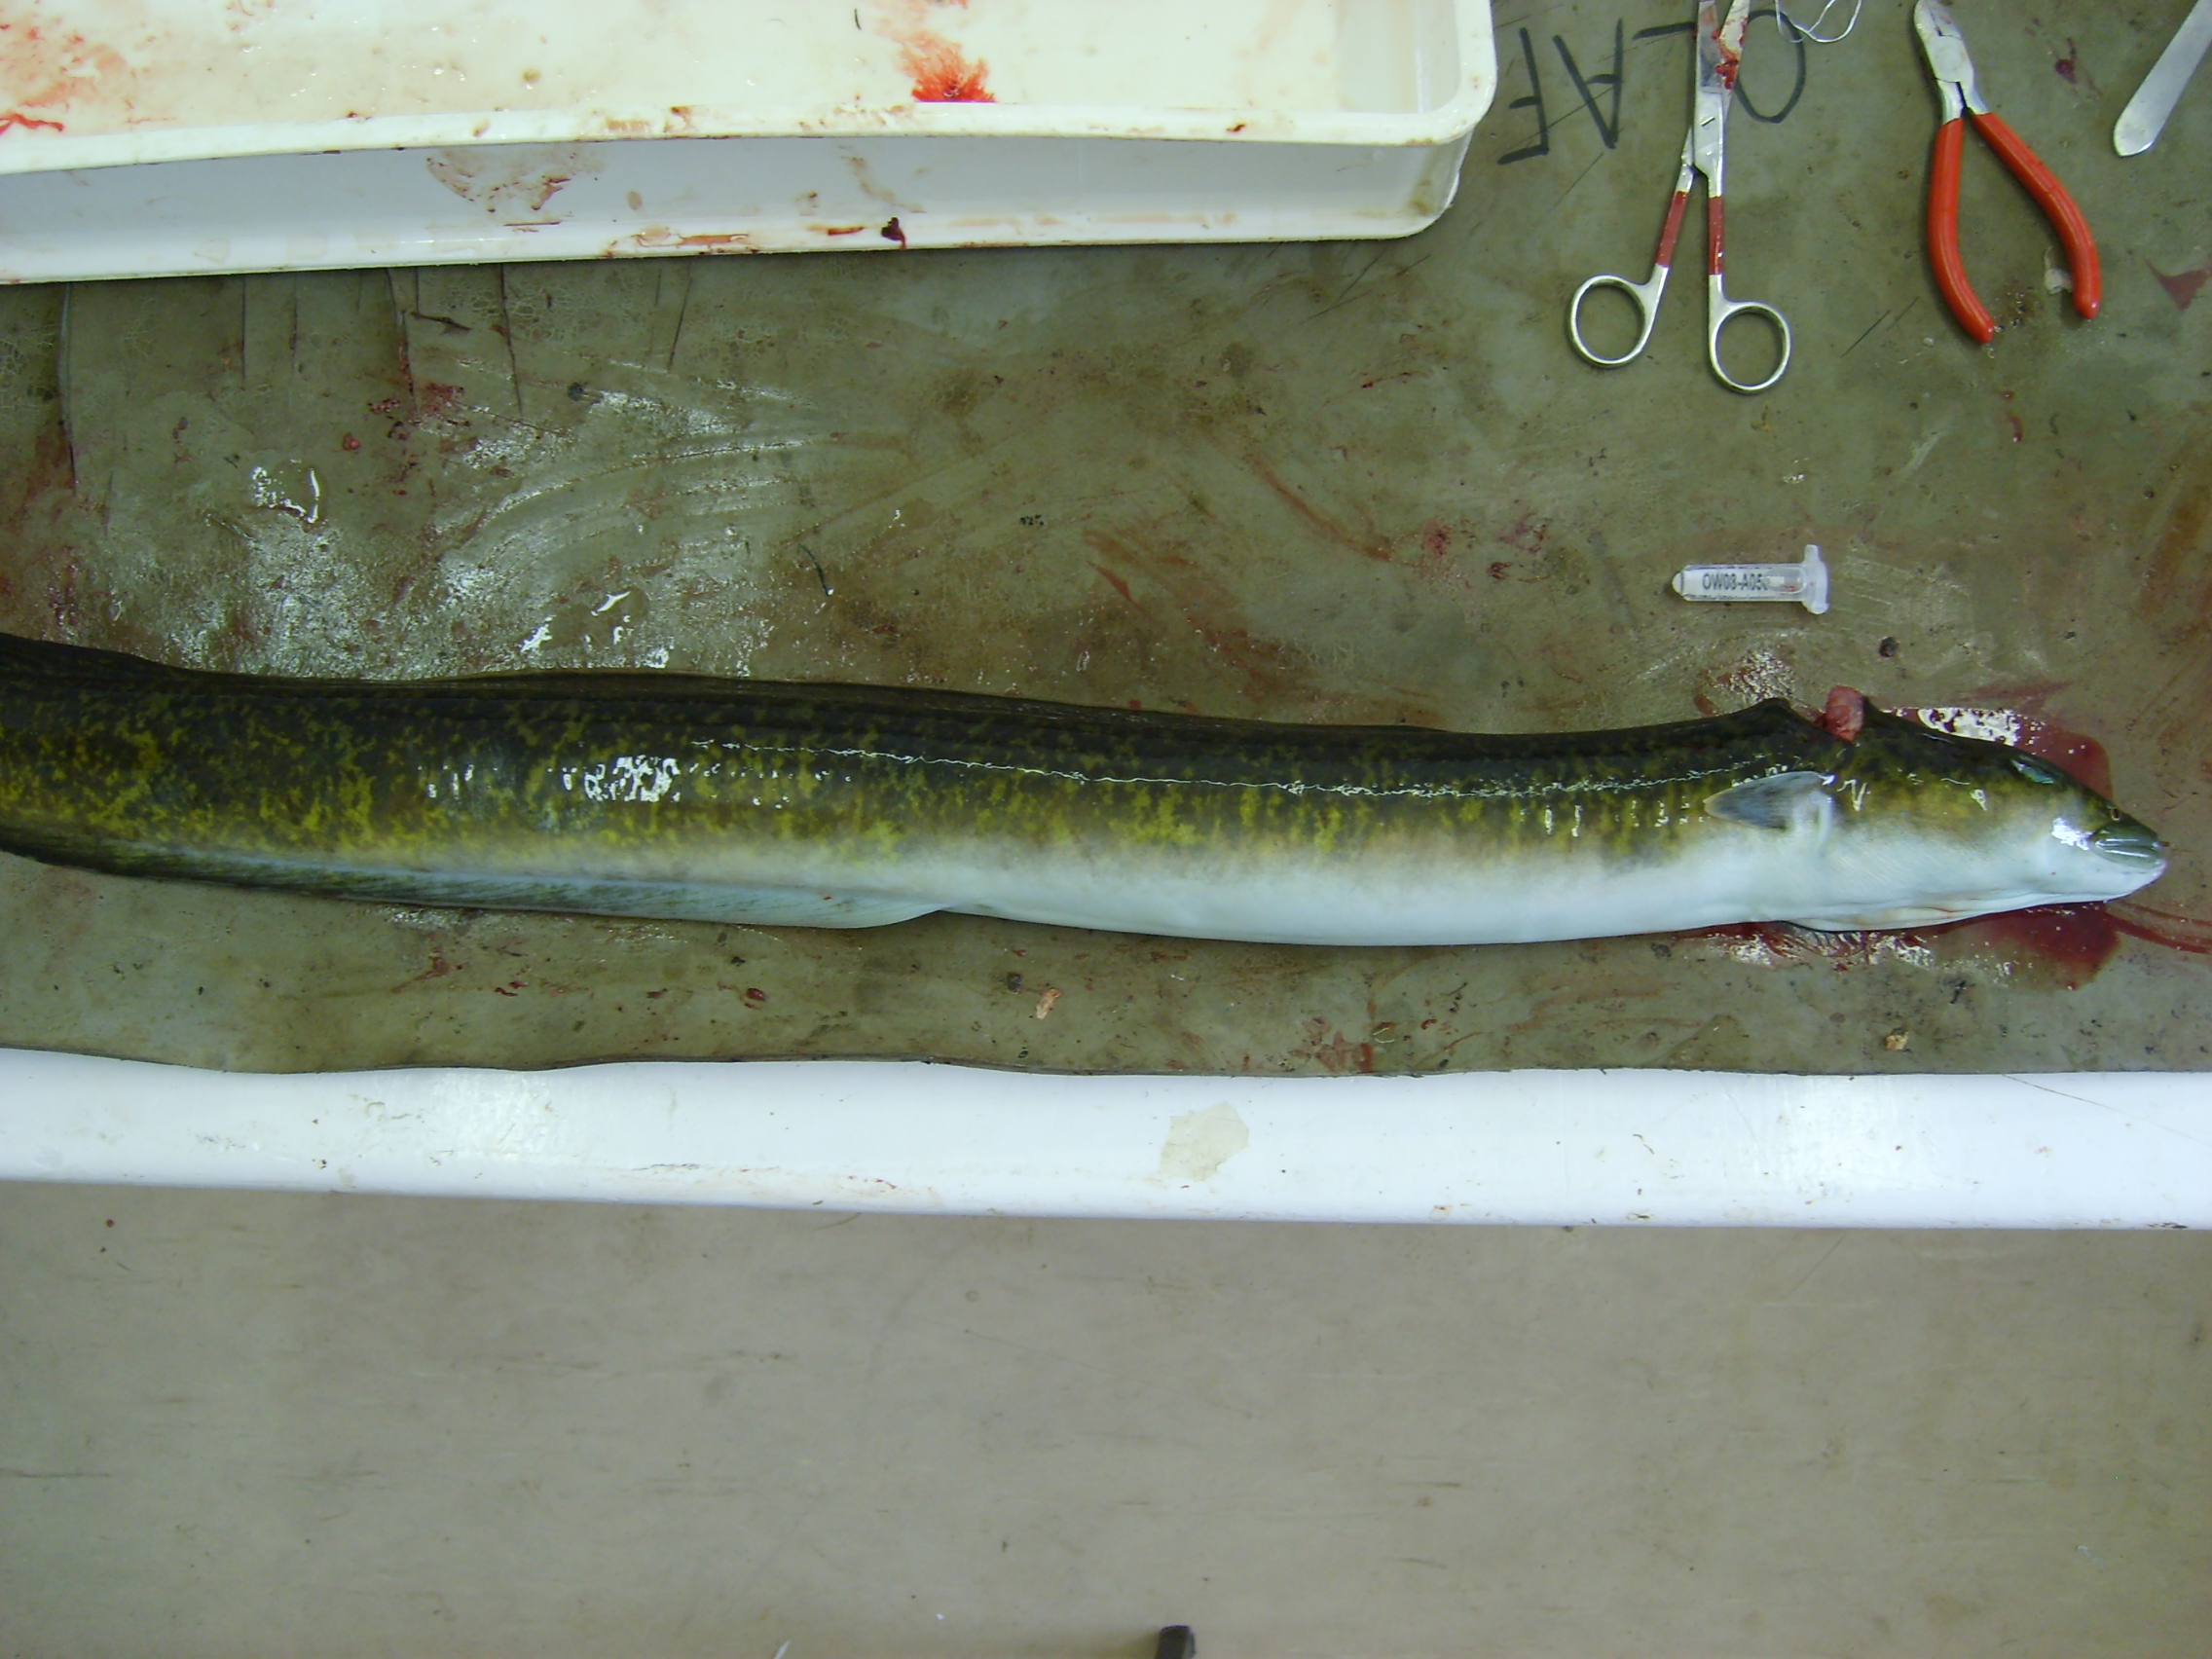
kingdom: Animalia
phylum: Chordata
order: Anguilliformes
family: Anguillidae
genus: Anguilla
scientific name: Anguilla marmorata
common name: Giant mottled eel
